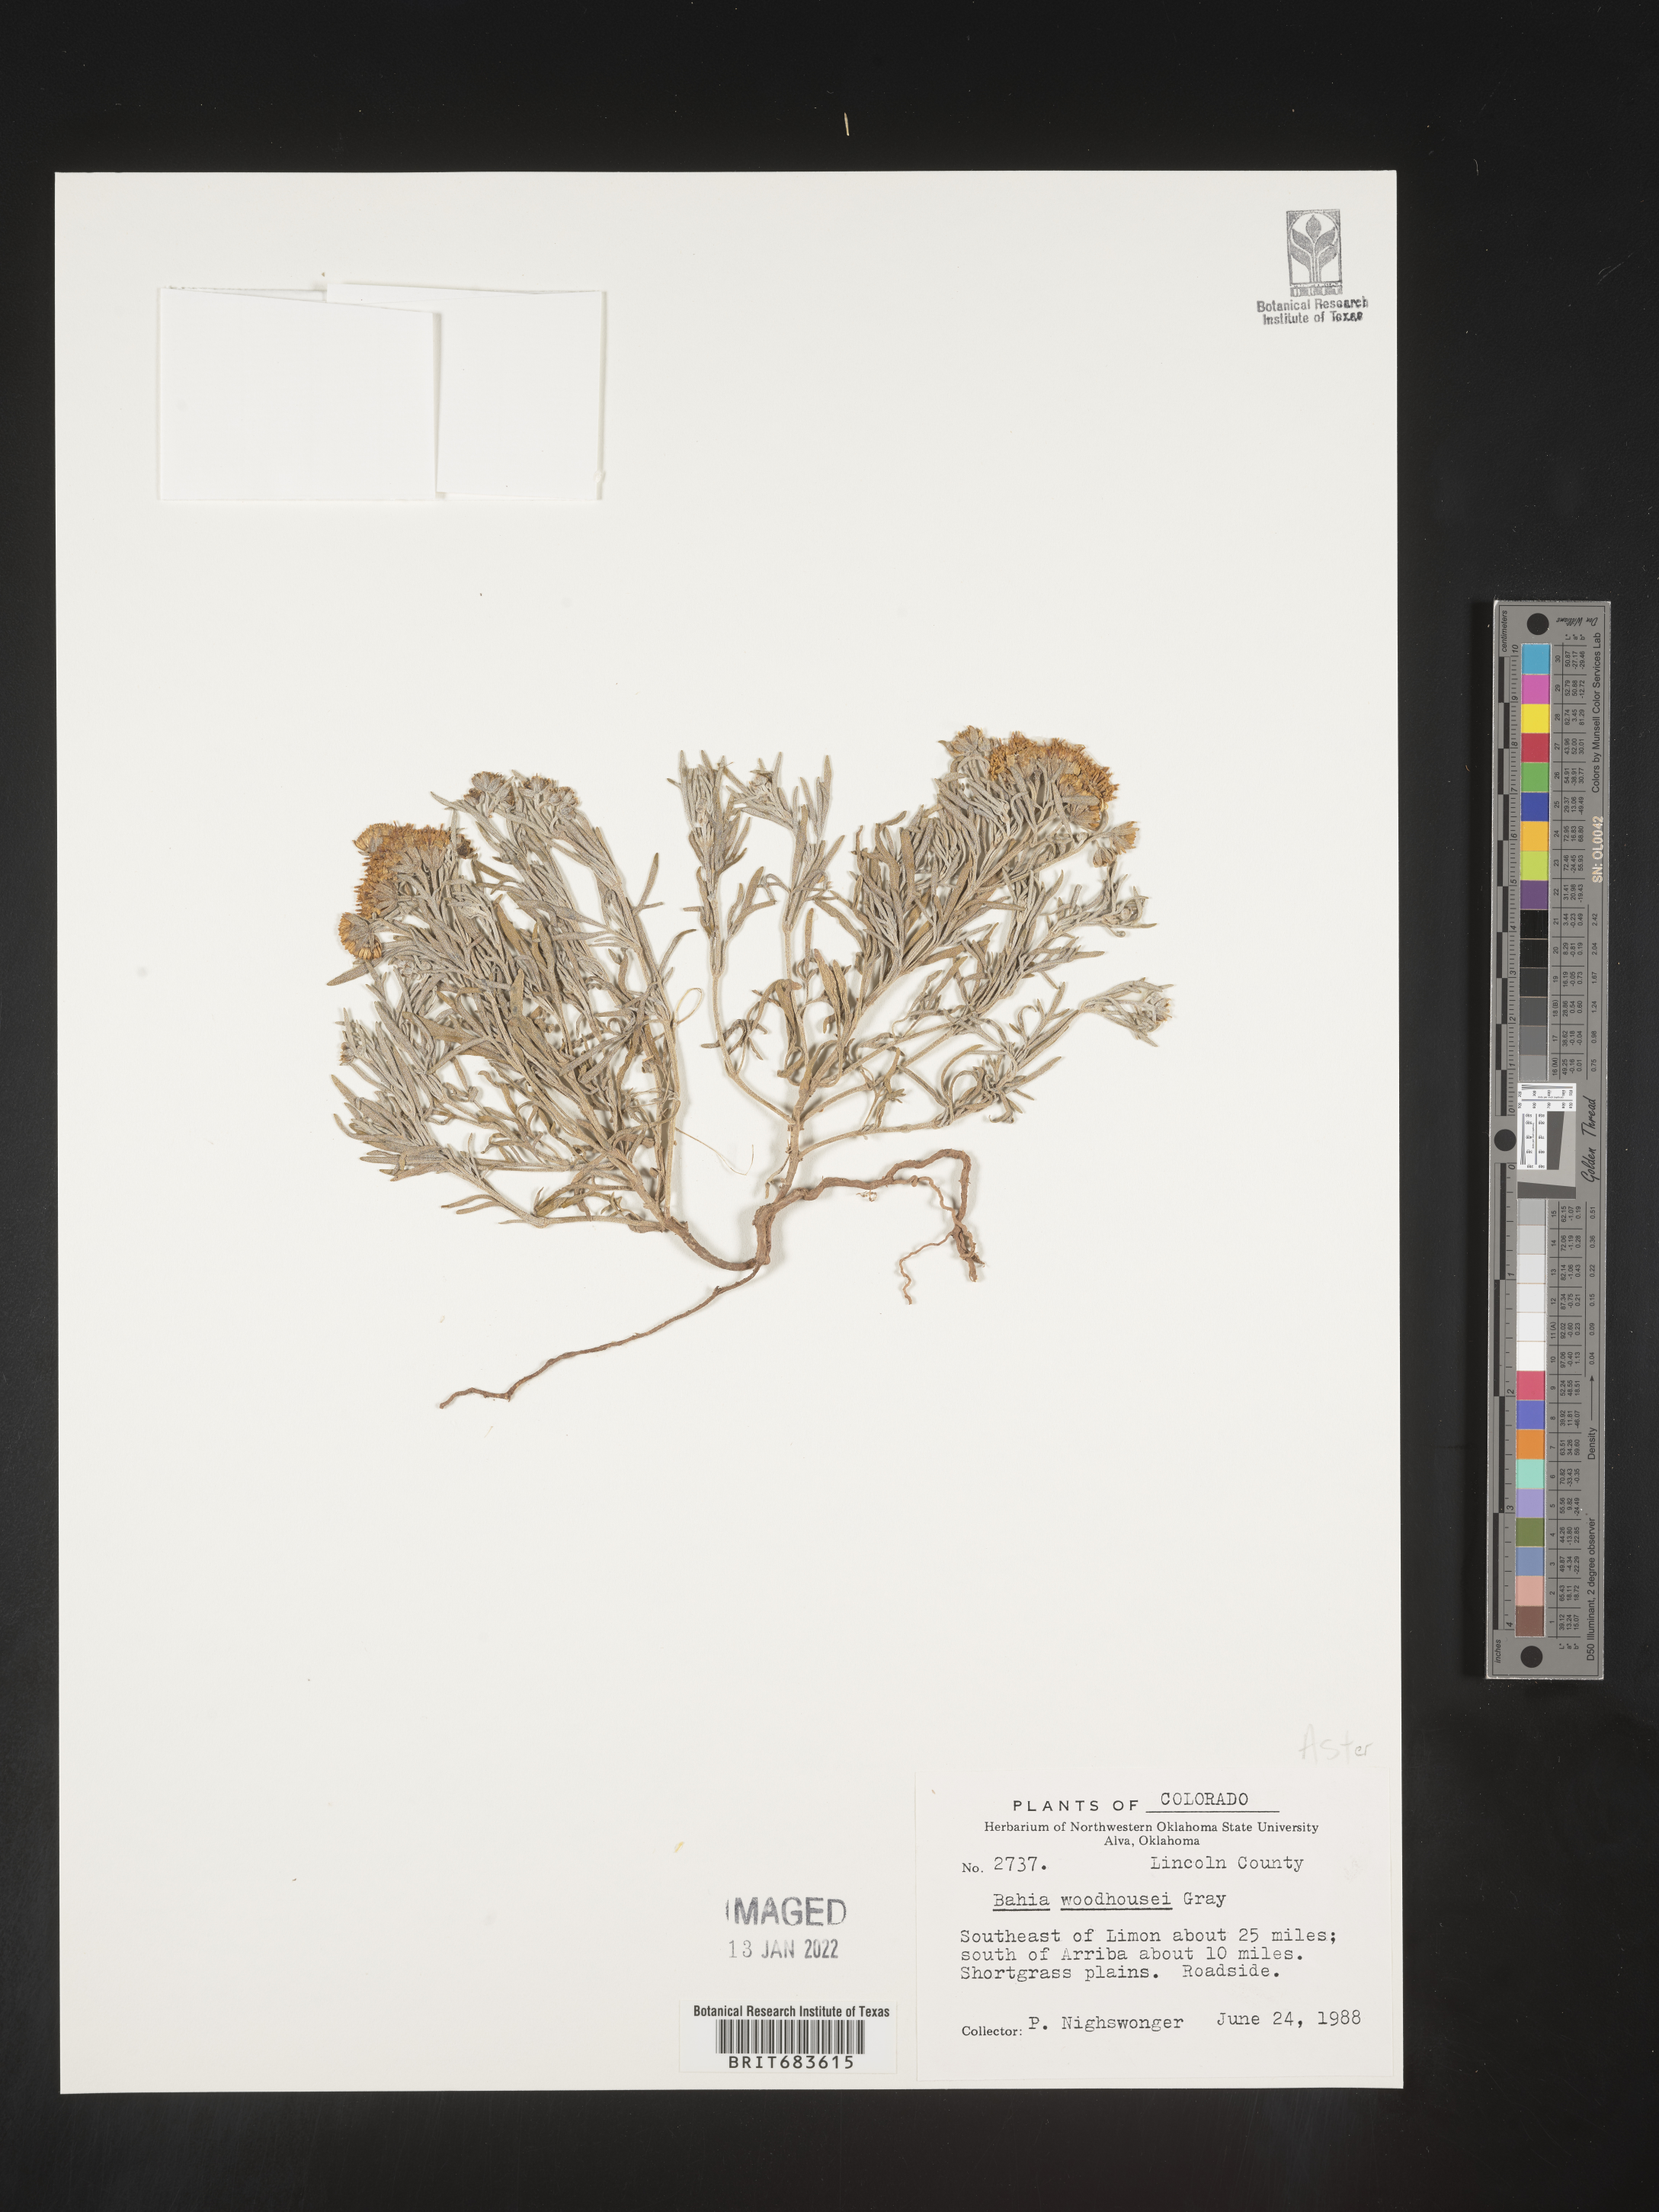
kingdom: Plantae
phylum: Tracheophyta
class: Magnoliopsida
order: Asterales
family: Asteraceae
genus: Picradeniopsis
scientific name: Picradeniopsis woodhousei
